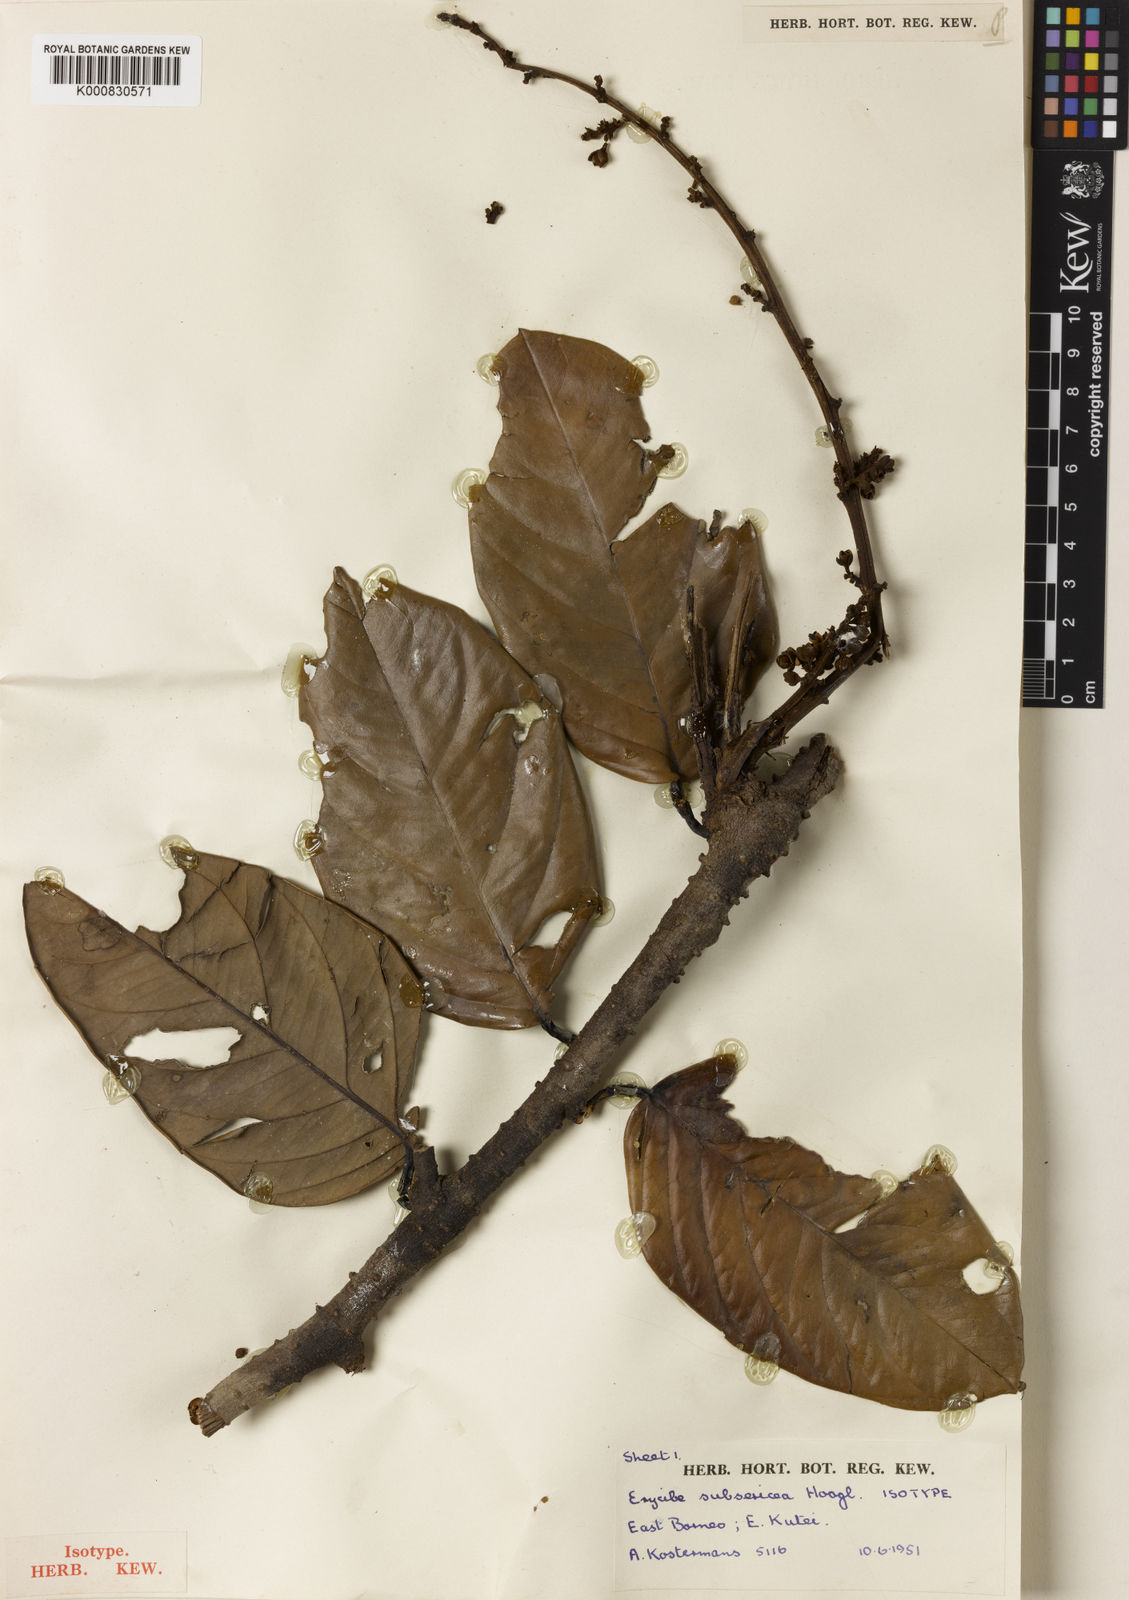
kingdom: Plantae
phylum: Tracheophyta
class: Magnoliopsida
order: Solanales
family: Convolvulaceae
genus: Erycibe
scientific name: Erycibe subsericea
